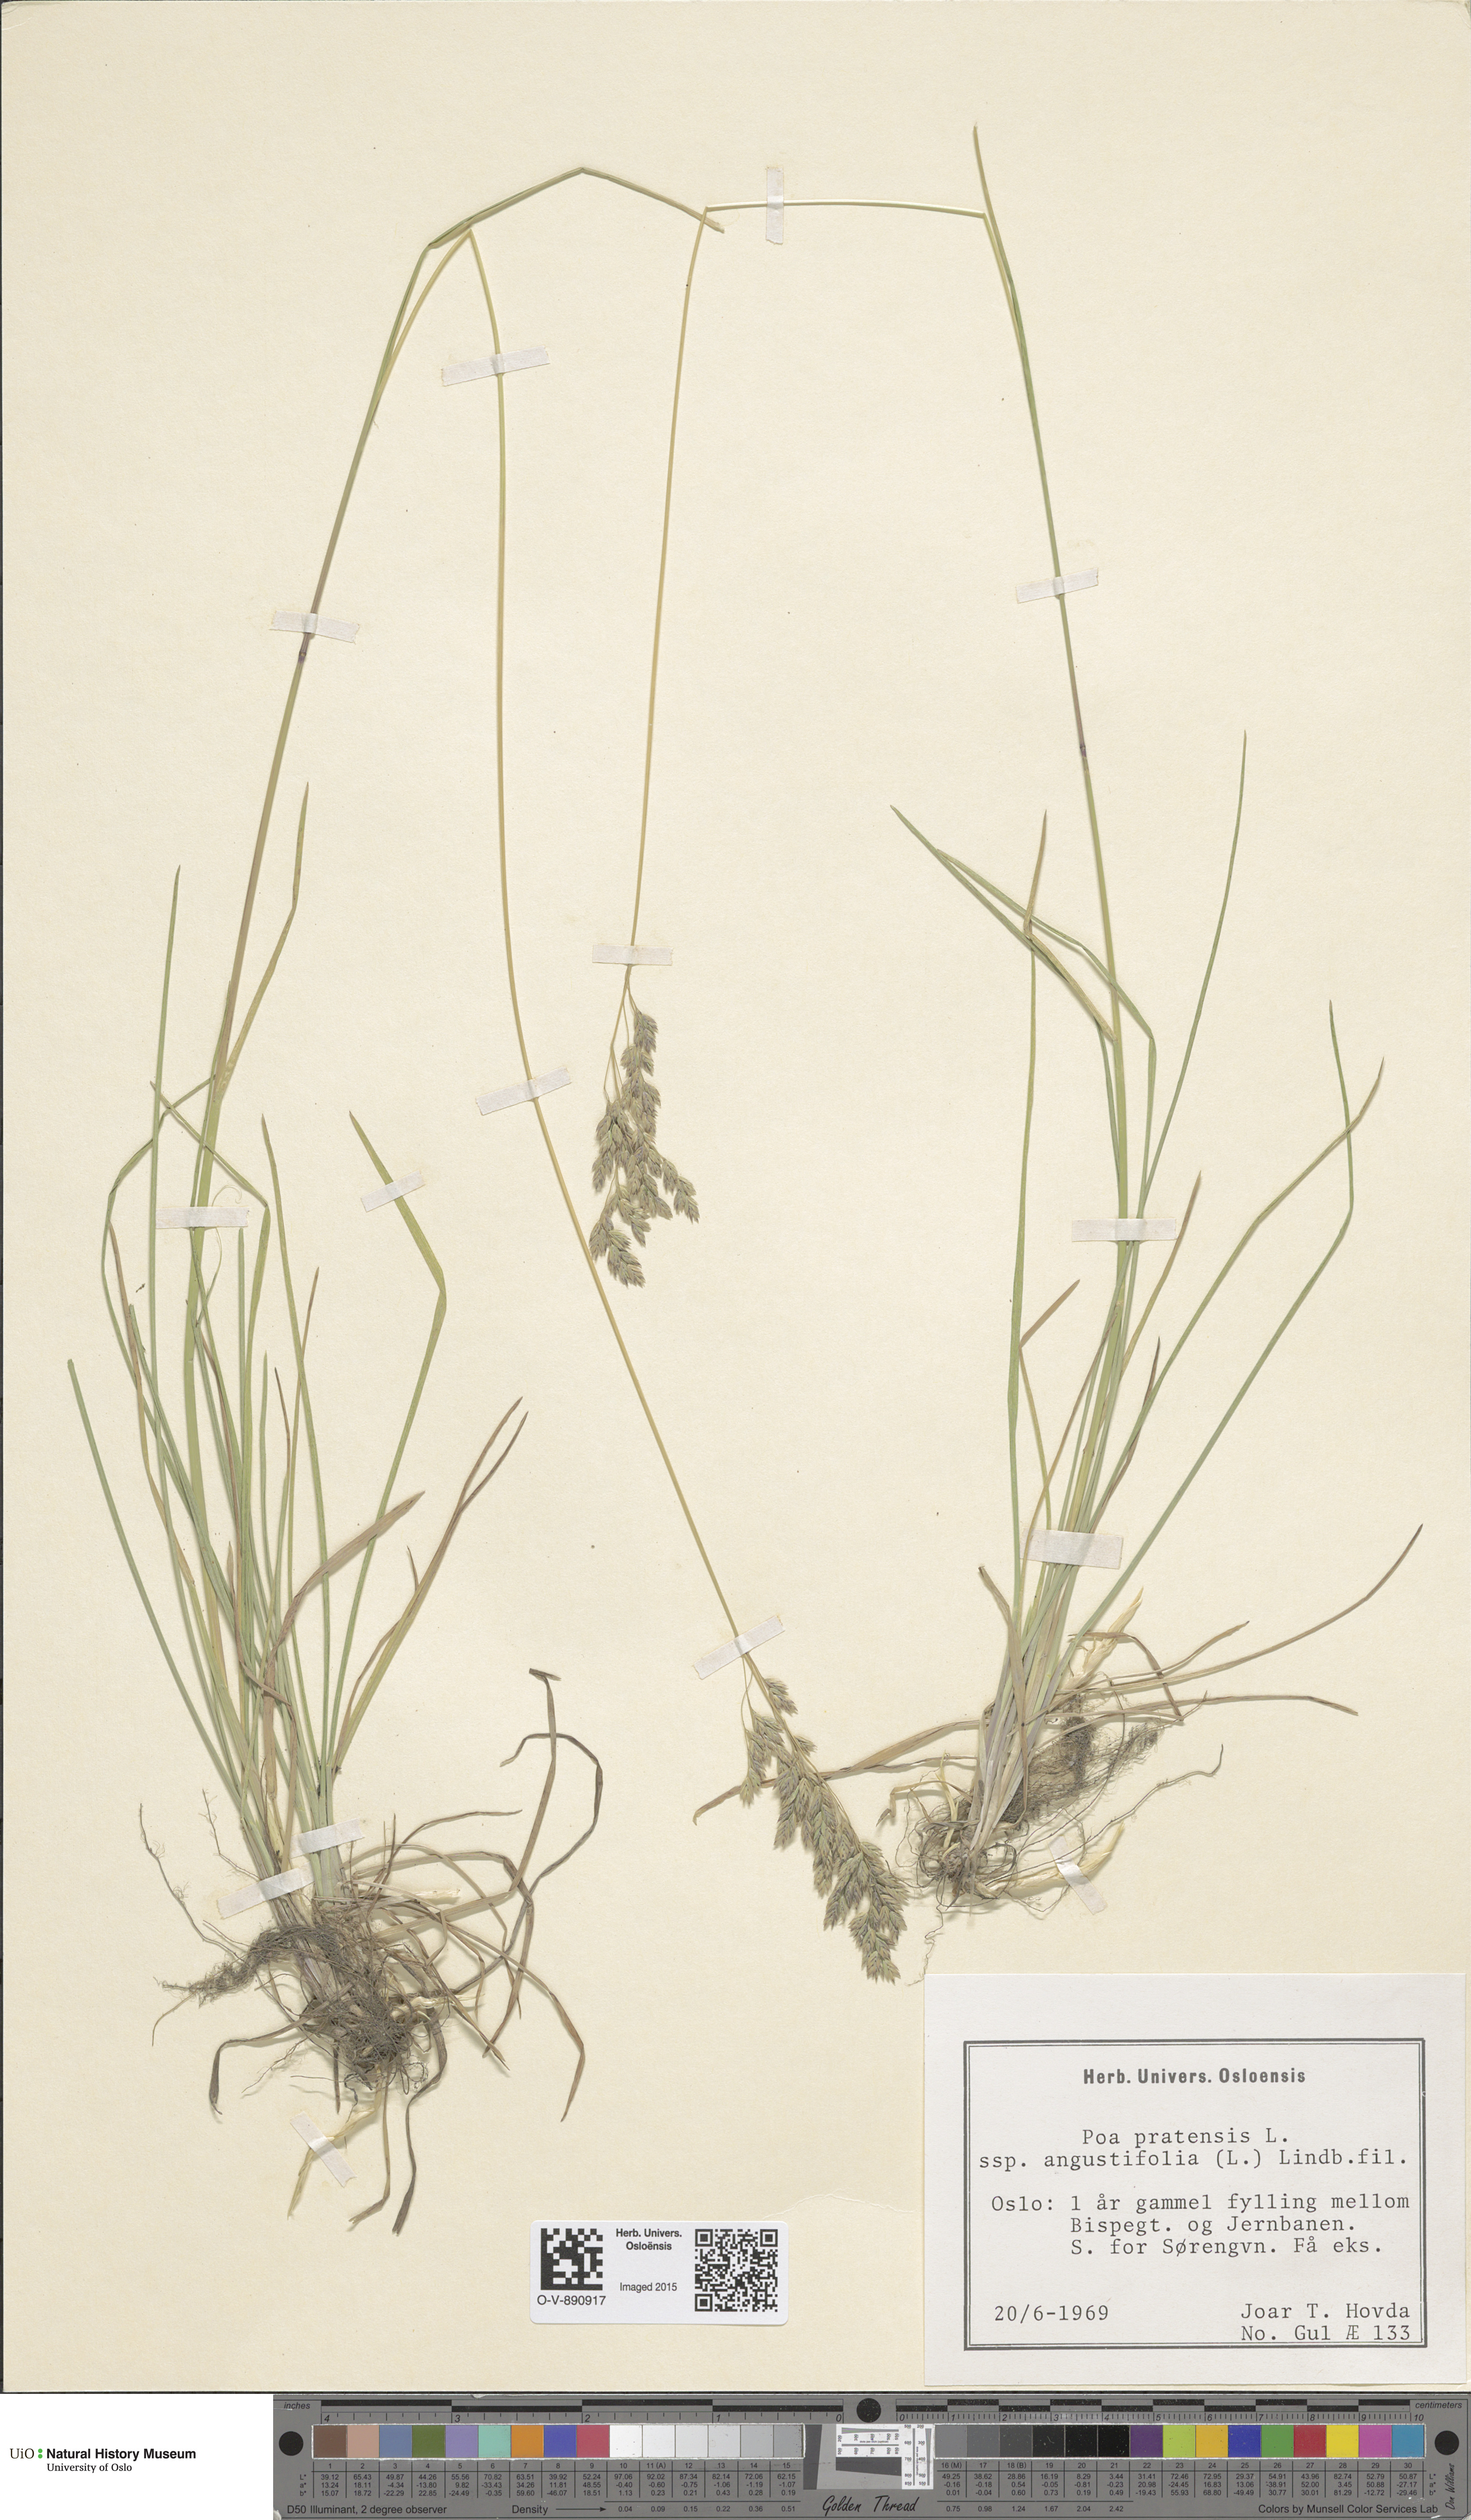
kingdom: Plantae
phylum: Tracheophyta
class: Liliopsida
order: Poales
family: Poaceae
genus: Poa
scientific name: Poa angustifolia
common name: Narrow-leaved meadow-grass
